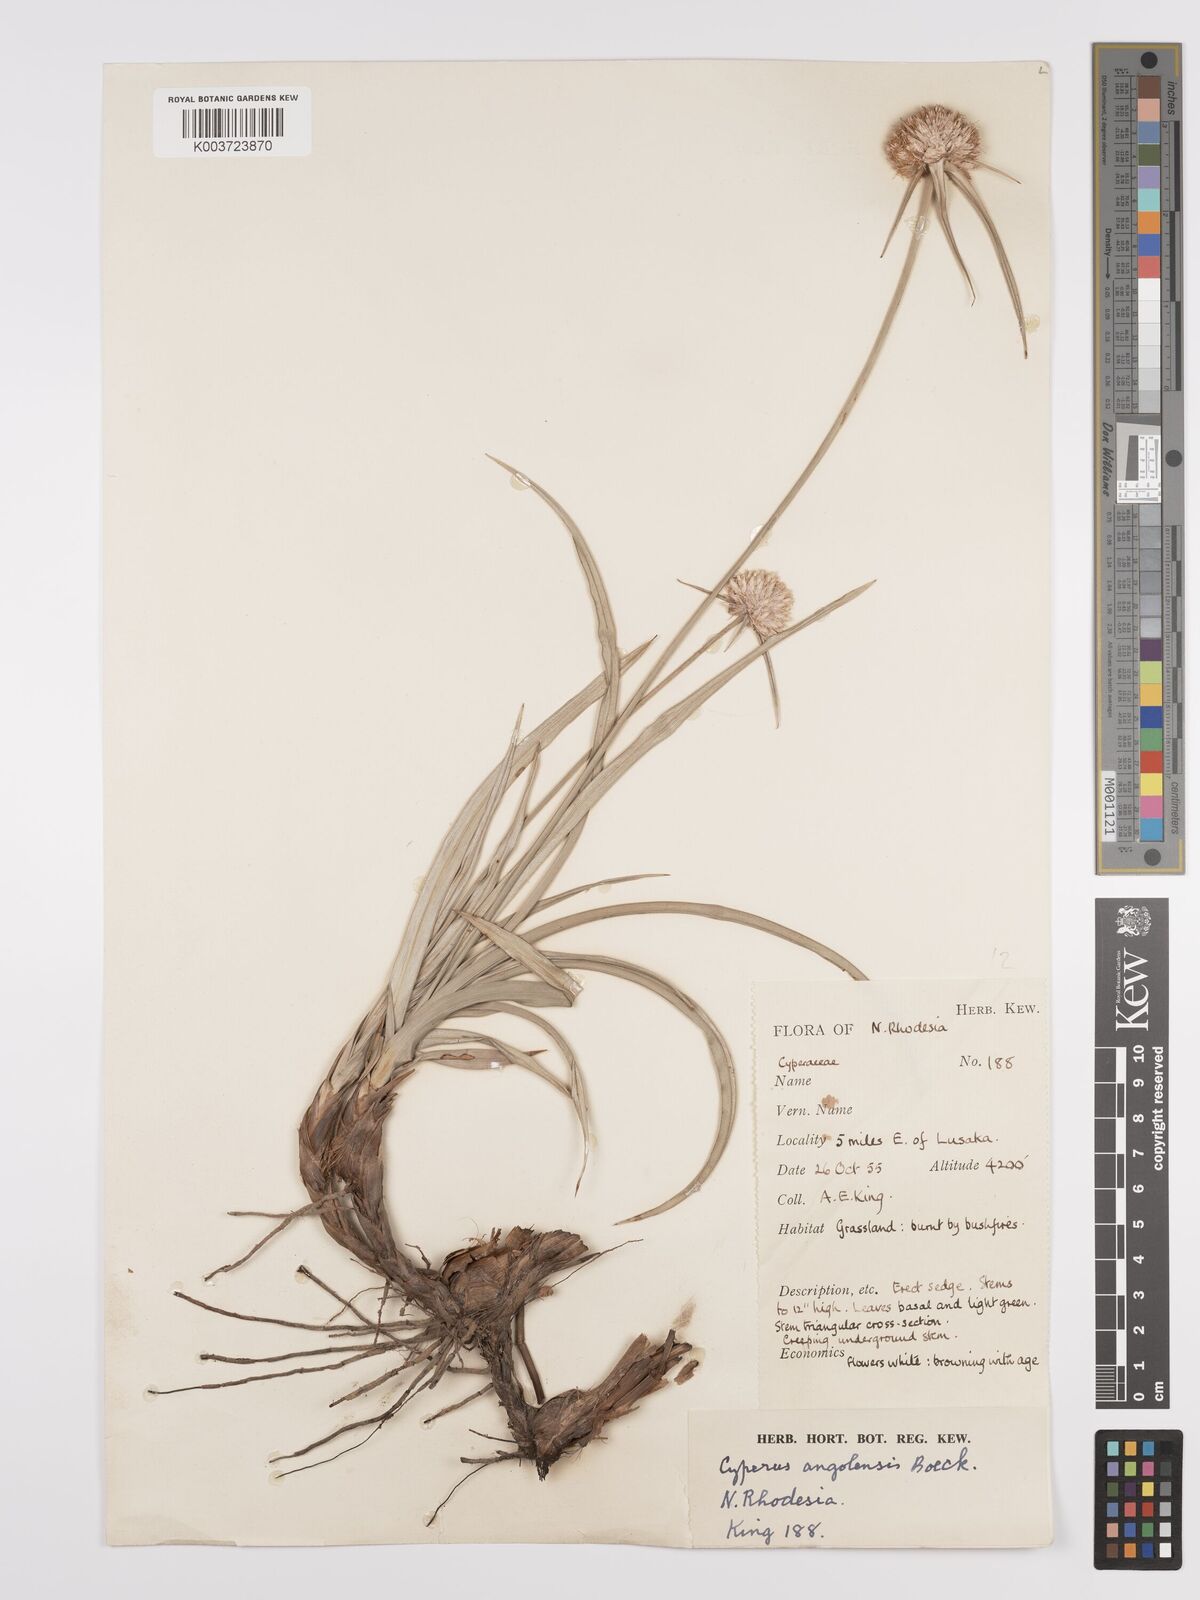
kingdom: Plantae
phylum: Tracheophyta
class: Liliopsida
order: Poales
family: Cyperaceae
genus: Cyperus
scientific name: Cyperus angolensis
